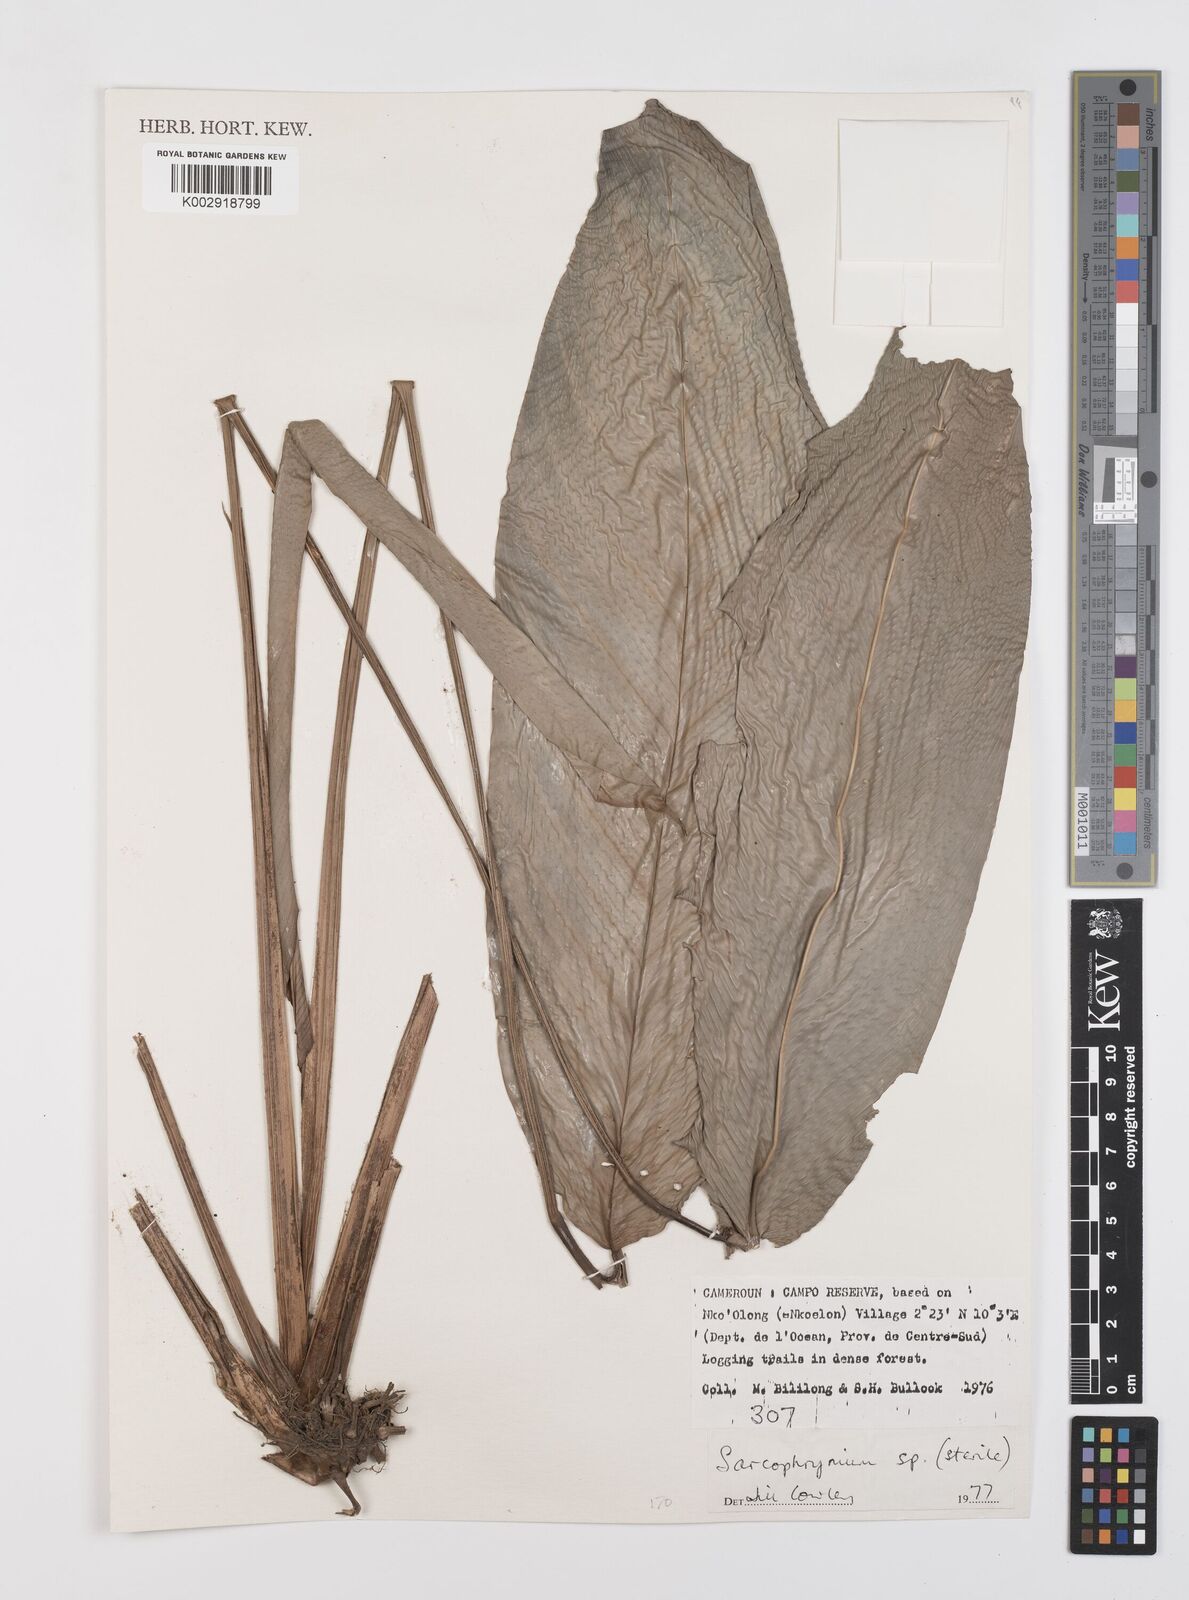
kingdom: Plantae
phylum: Tracheophyta
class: Liliopsida
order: Zingiberales
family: Marantaceae
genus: Sarcophrynium
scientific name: Sarcophrynium
